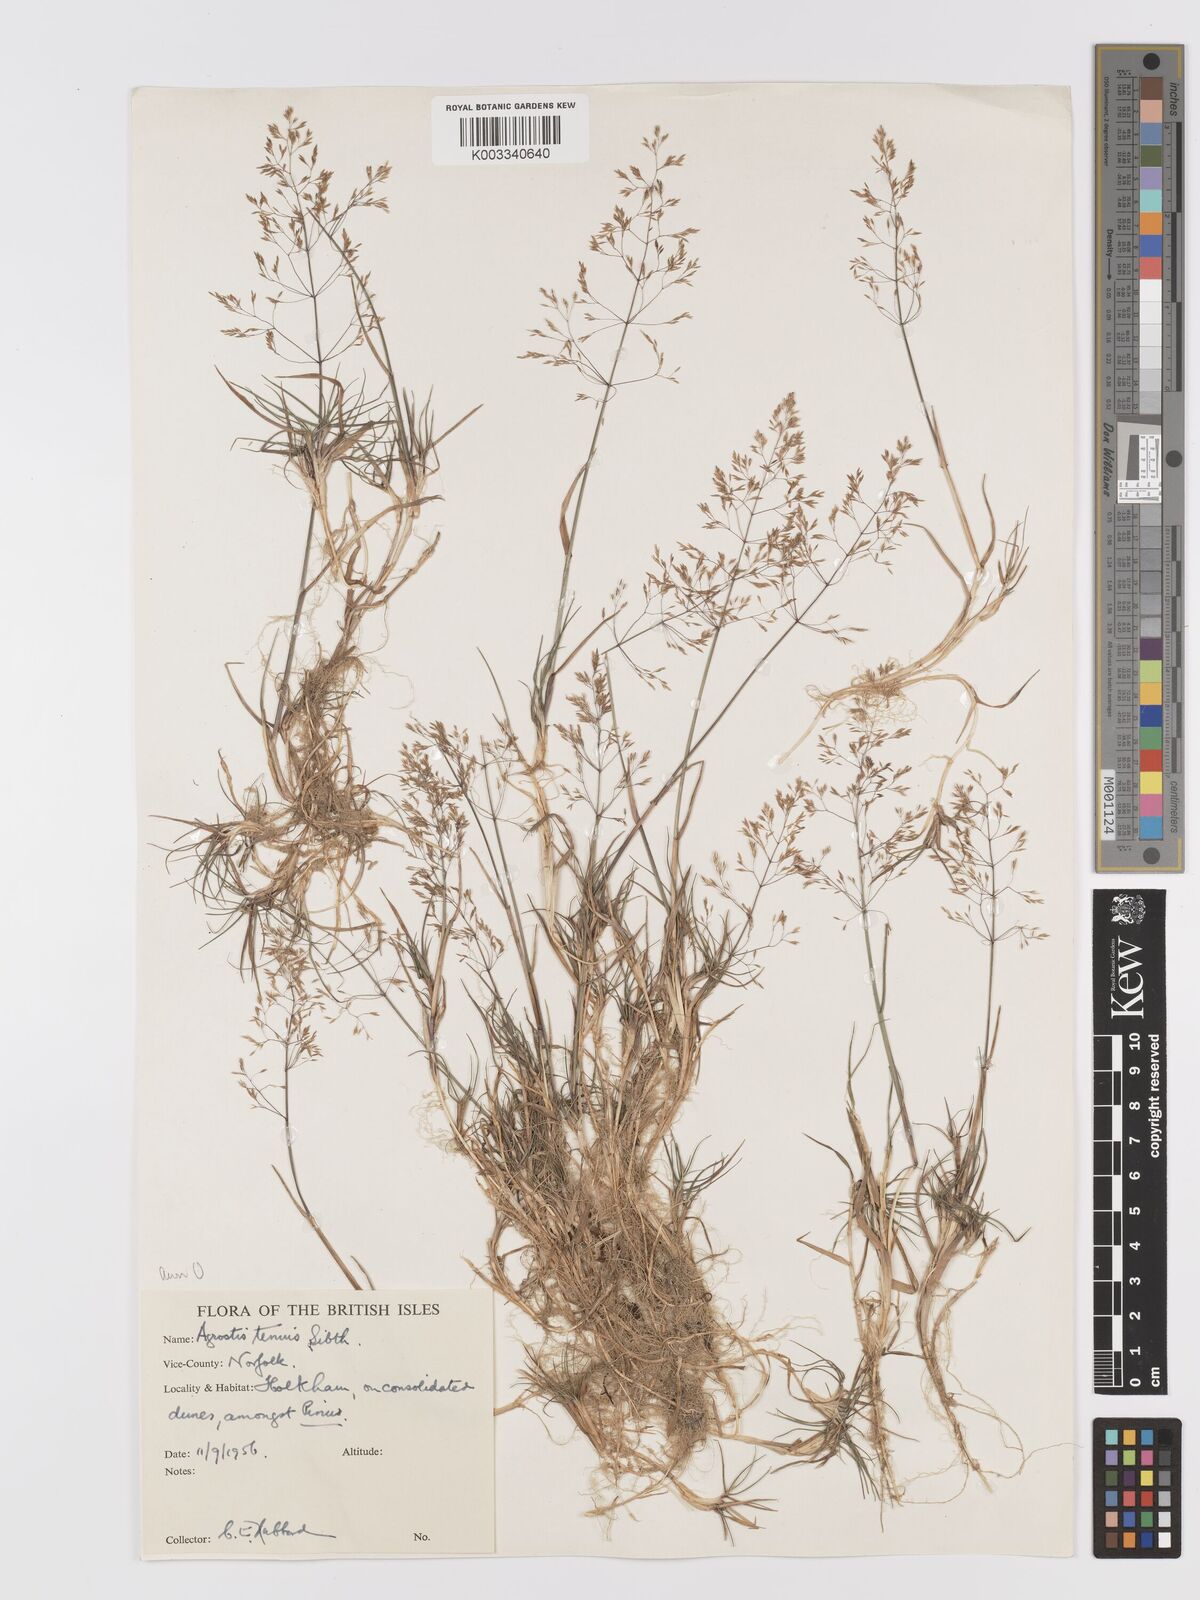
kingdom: Plantae
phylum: Tracheophyta
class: Liliopsida
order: Poales
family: Poaceae
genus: Agrostis
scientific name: Agrostis capillaris
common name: Colonial bentgrass
